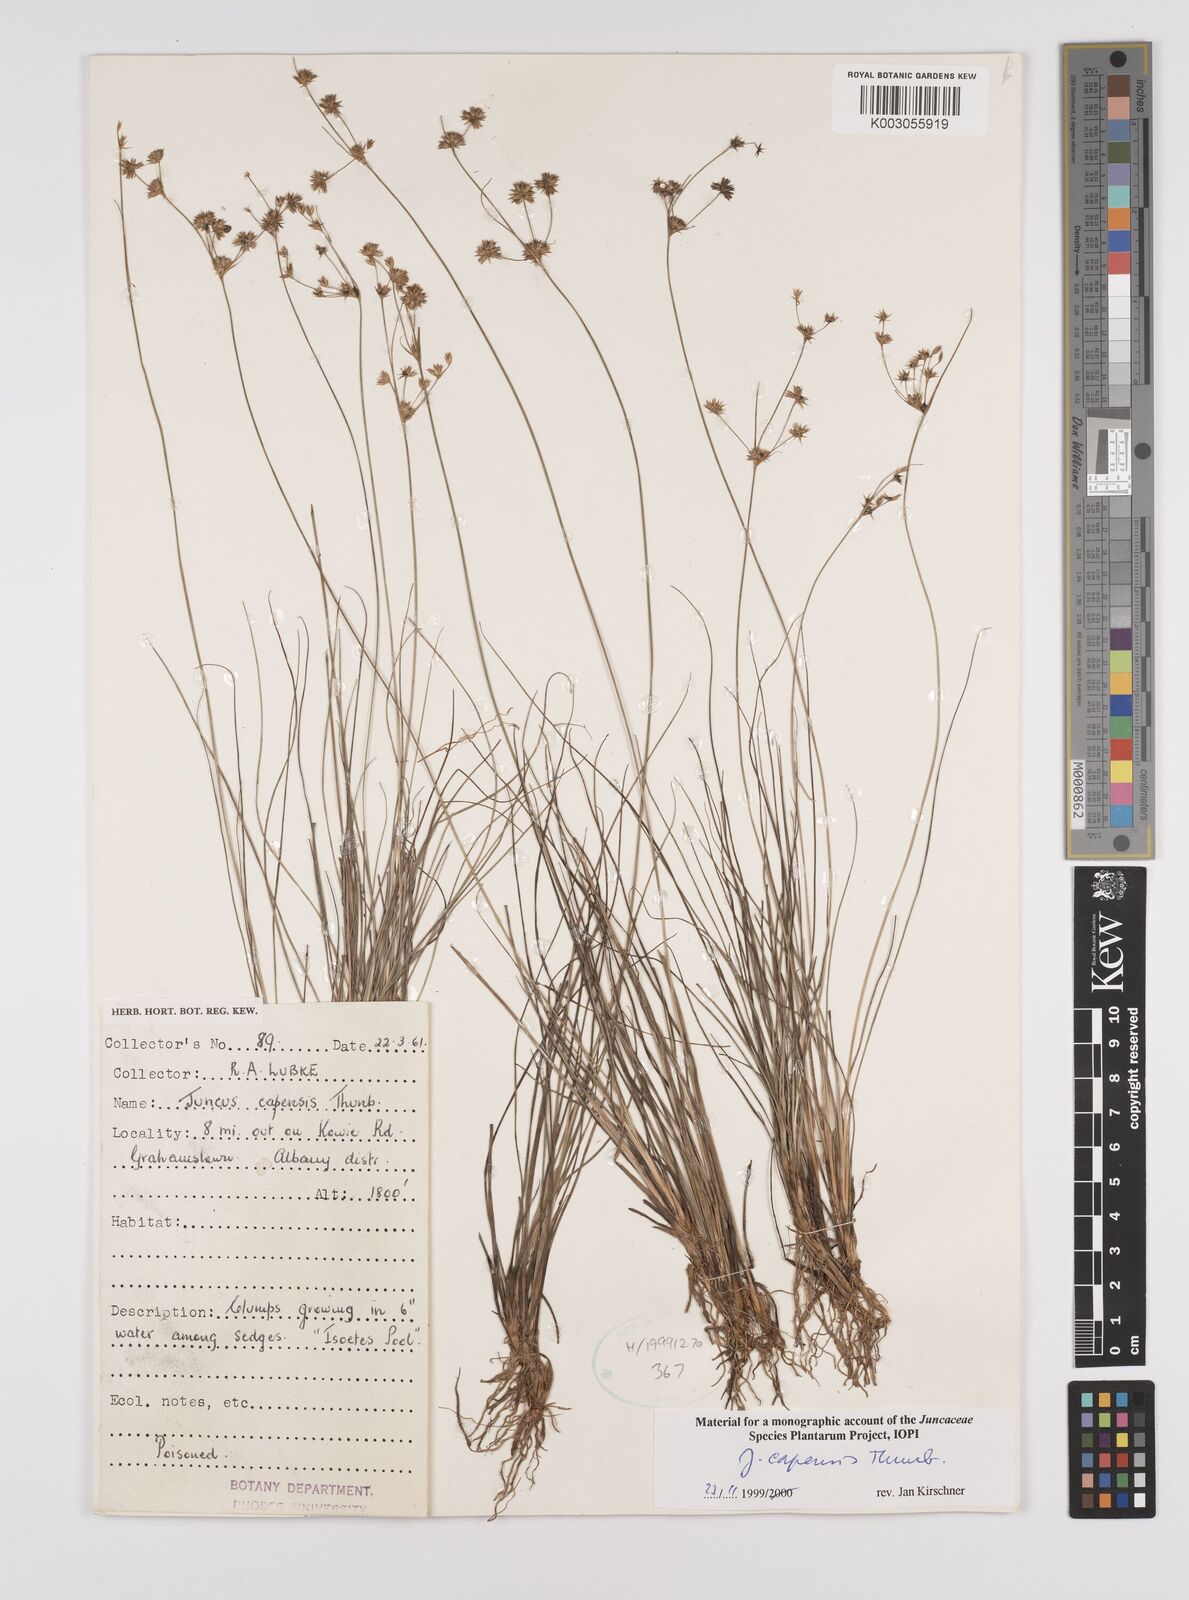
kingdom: Plantae
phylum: Tracheophyta
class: Liliopsida
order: Poales
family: Juncaceae
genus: Juncus
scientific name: Juncus capensis
